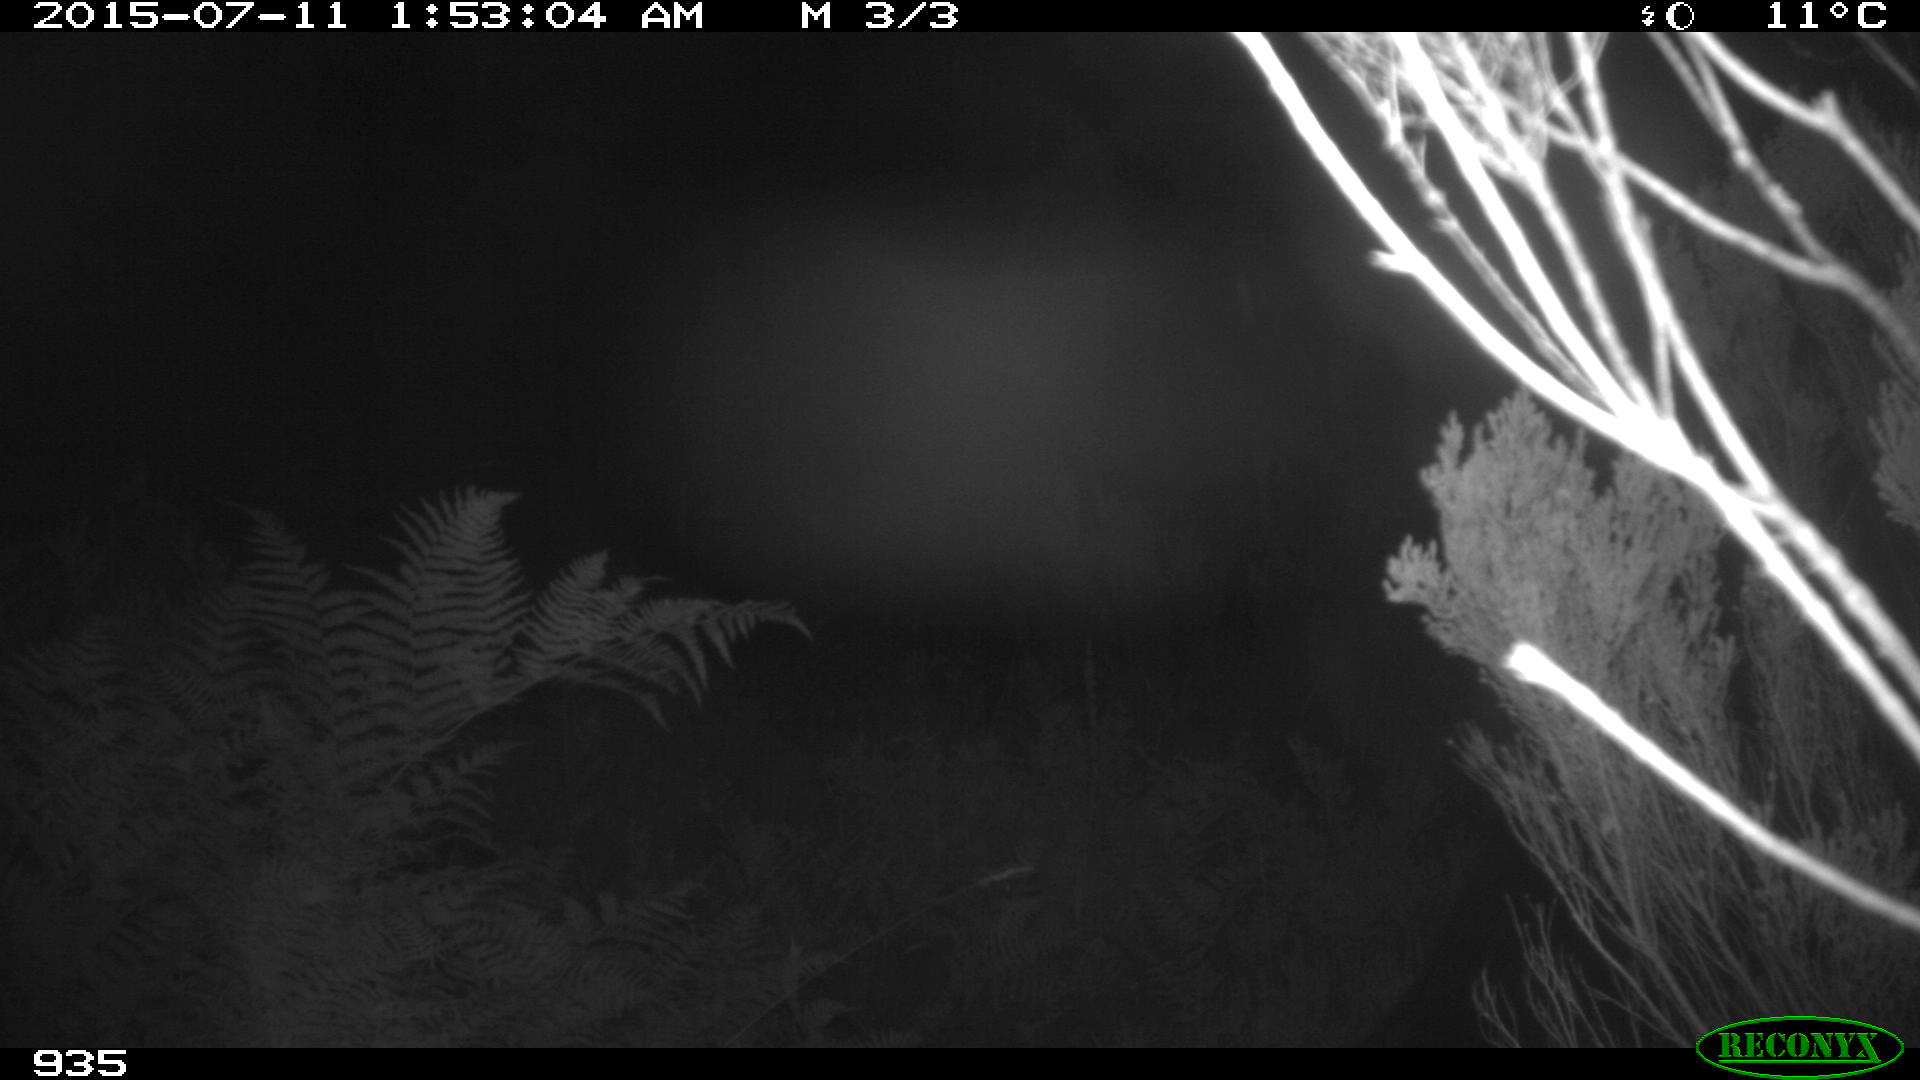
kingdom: Animalia
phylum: Chordata
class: Mammalia
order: Perissodactyla
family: Equidae
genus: Equus
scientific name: Equus caballus
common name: Horse
